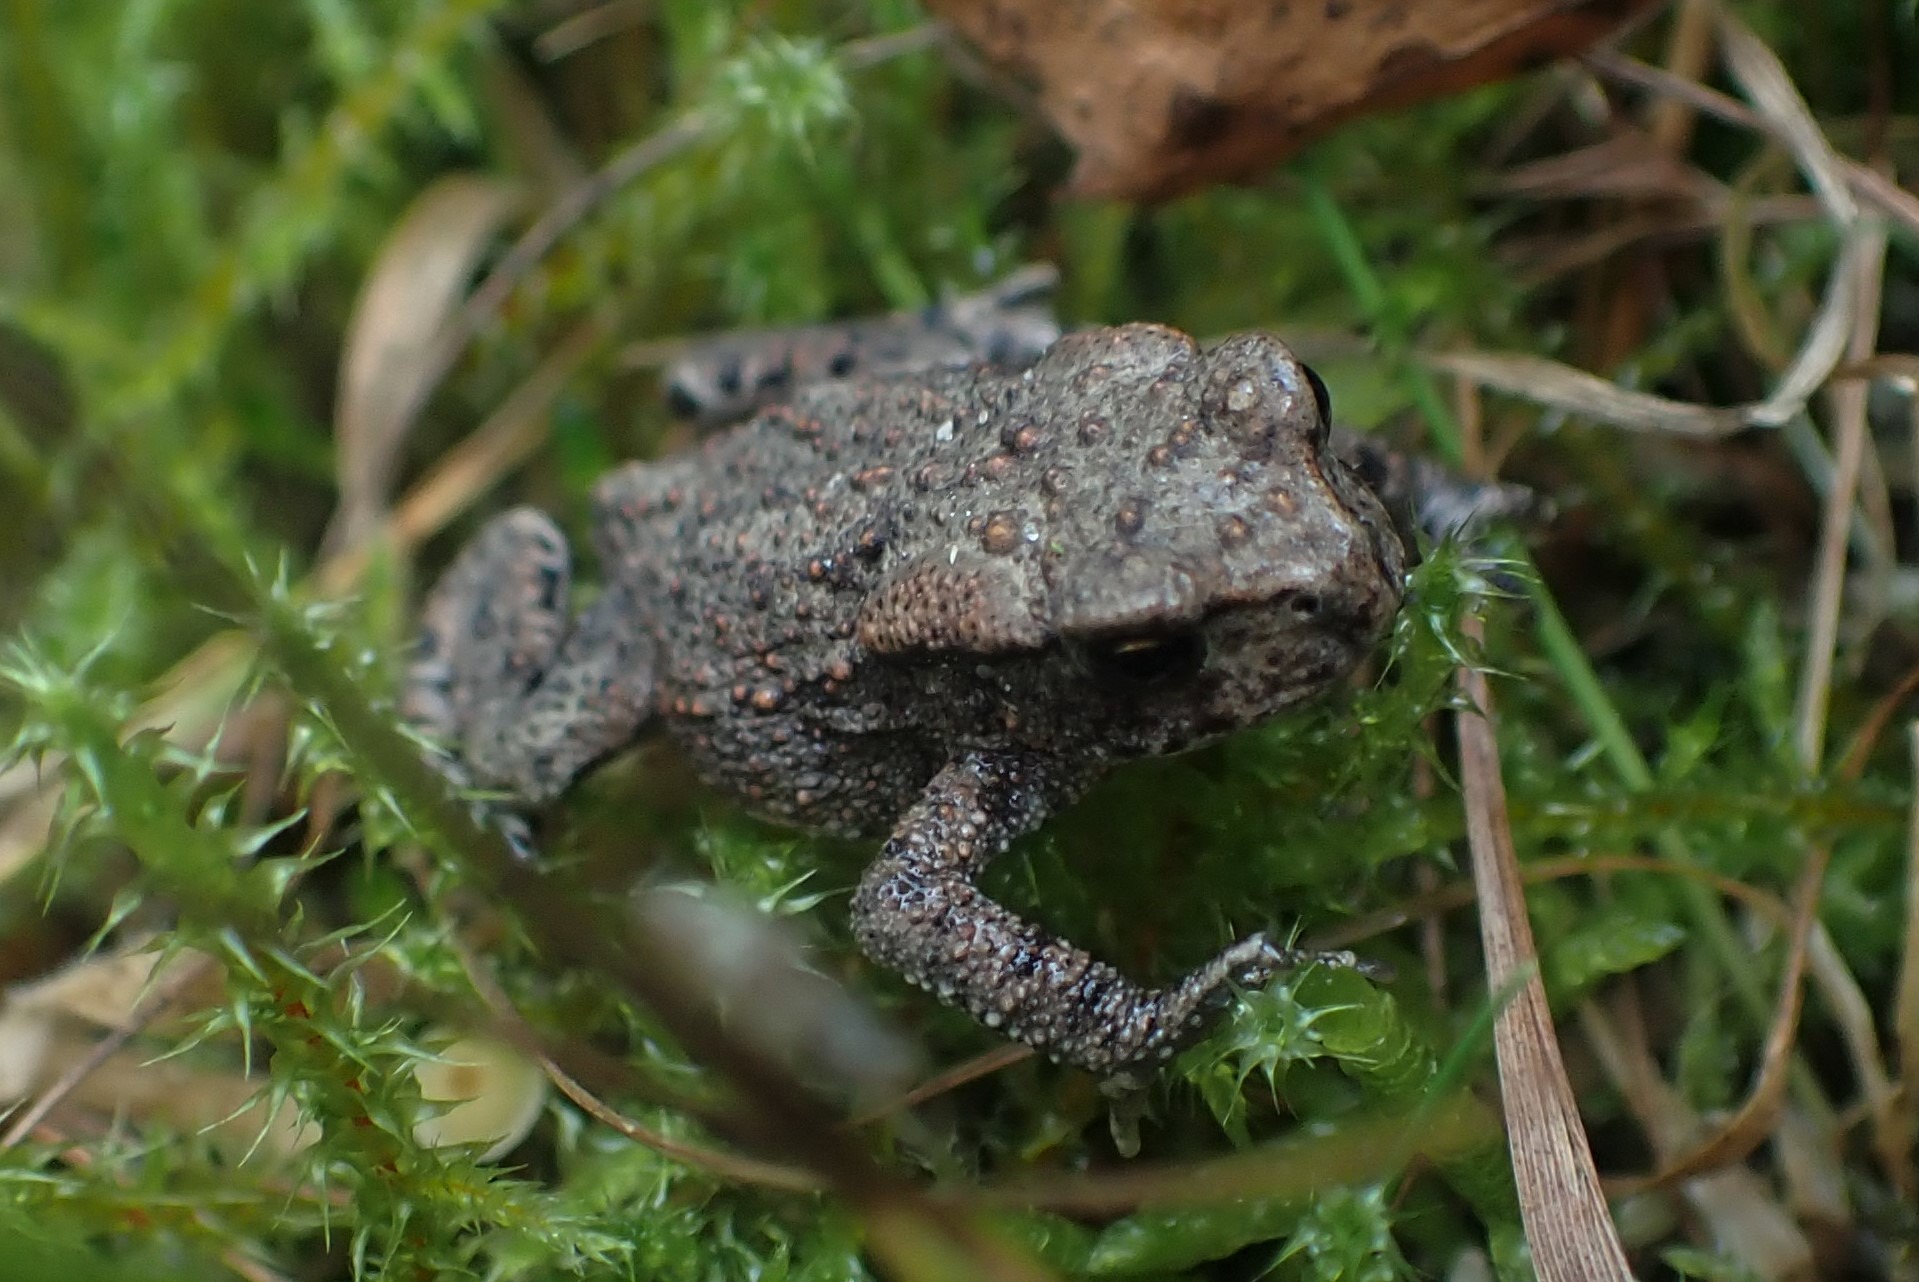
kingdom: Animalia
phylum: Chordata
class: Amphibia
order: Anura
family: Bufonidae
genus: Bufo
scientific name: Bufo bufo
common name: Skrubtudse
